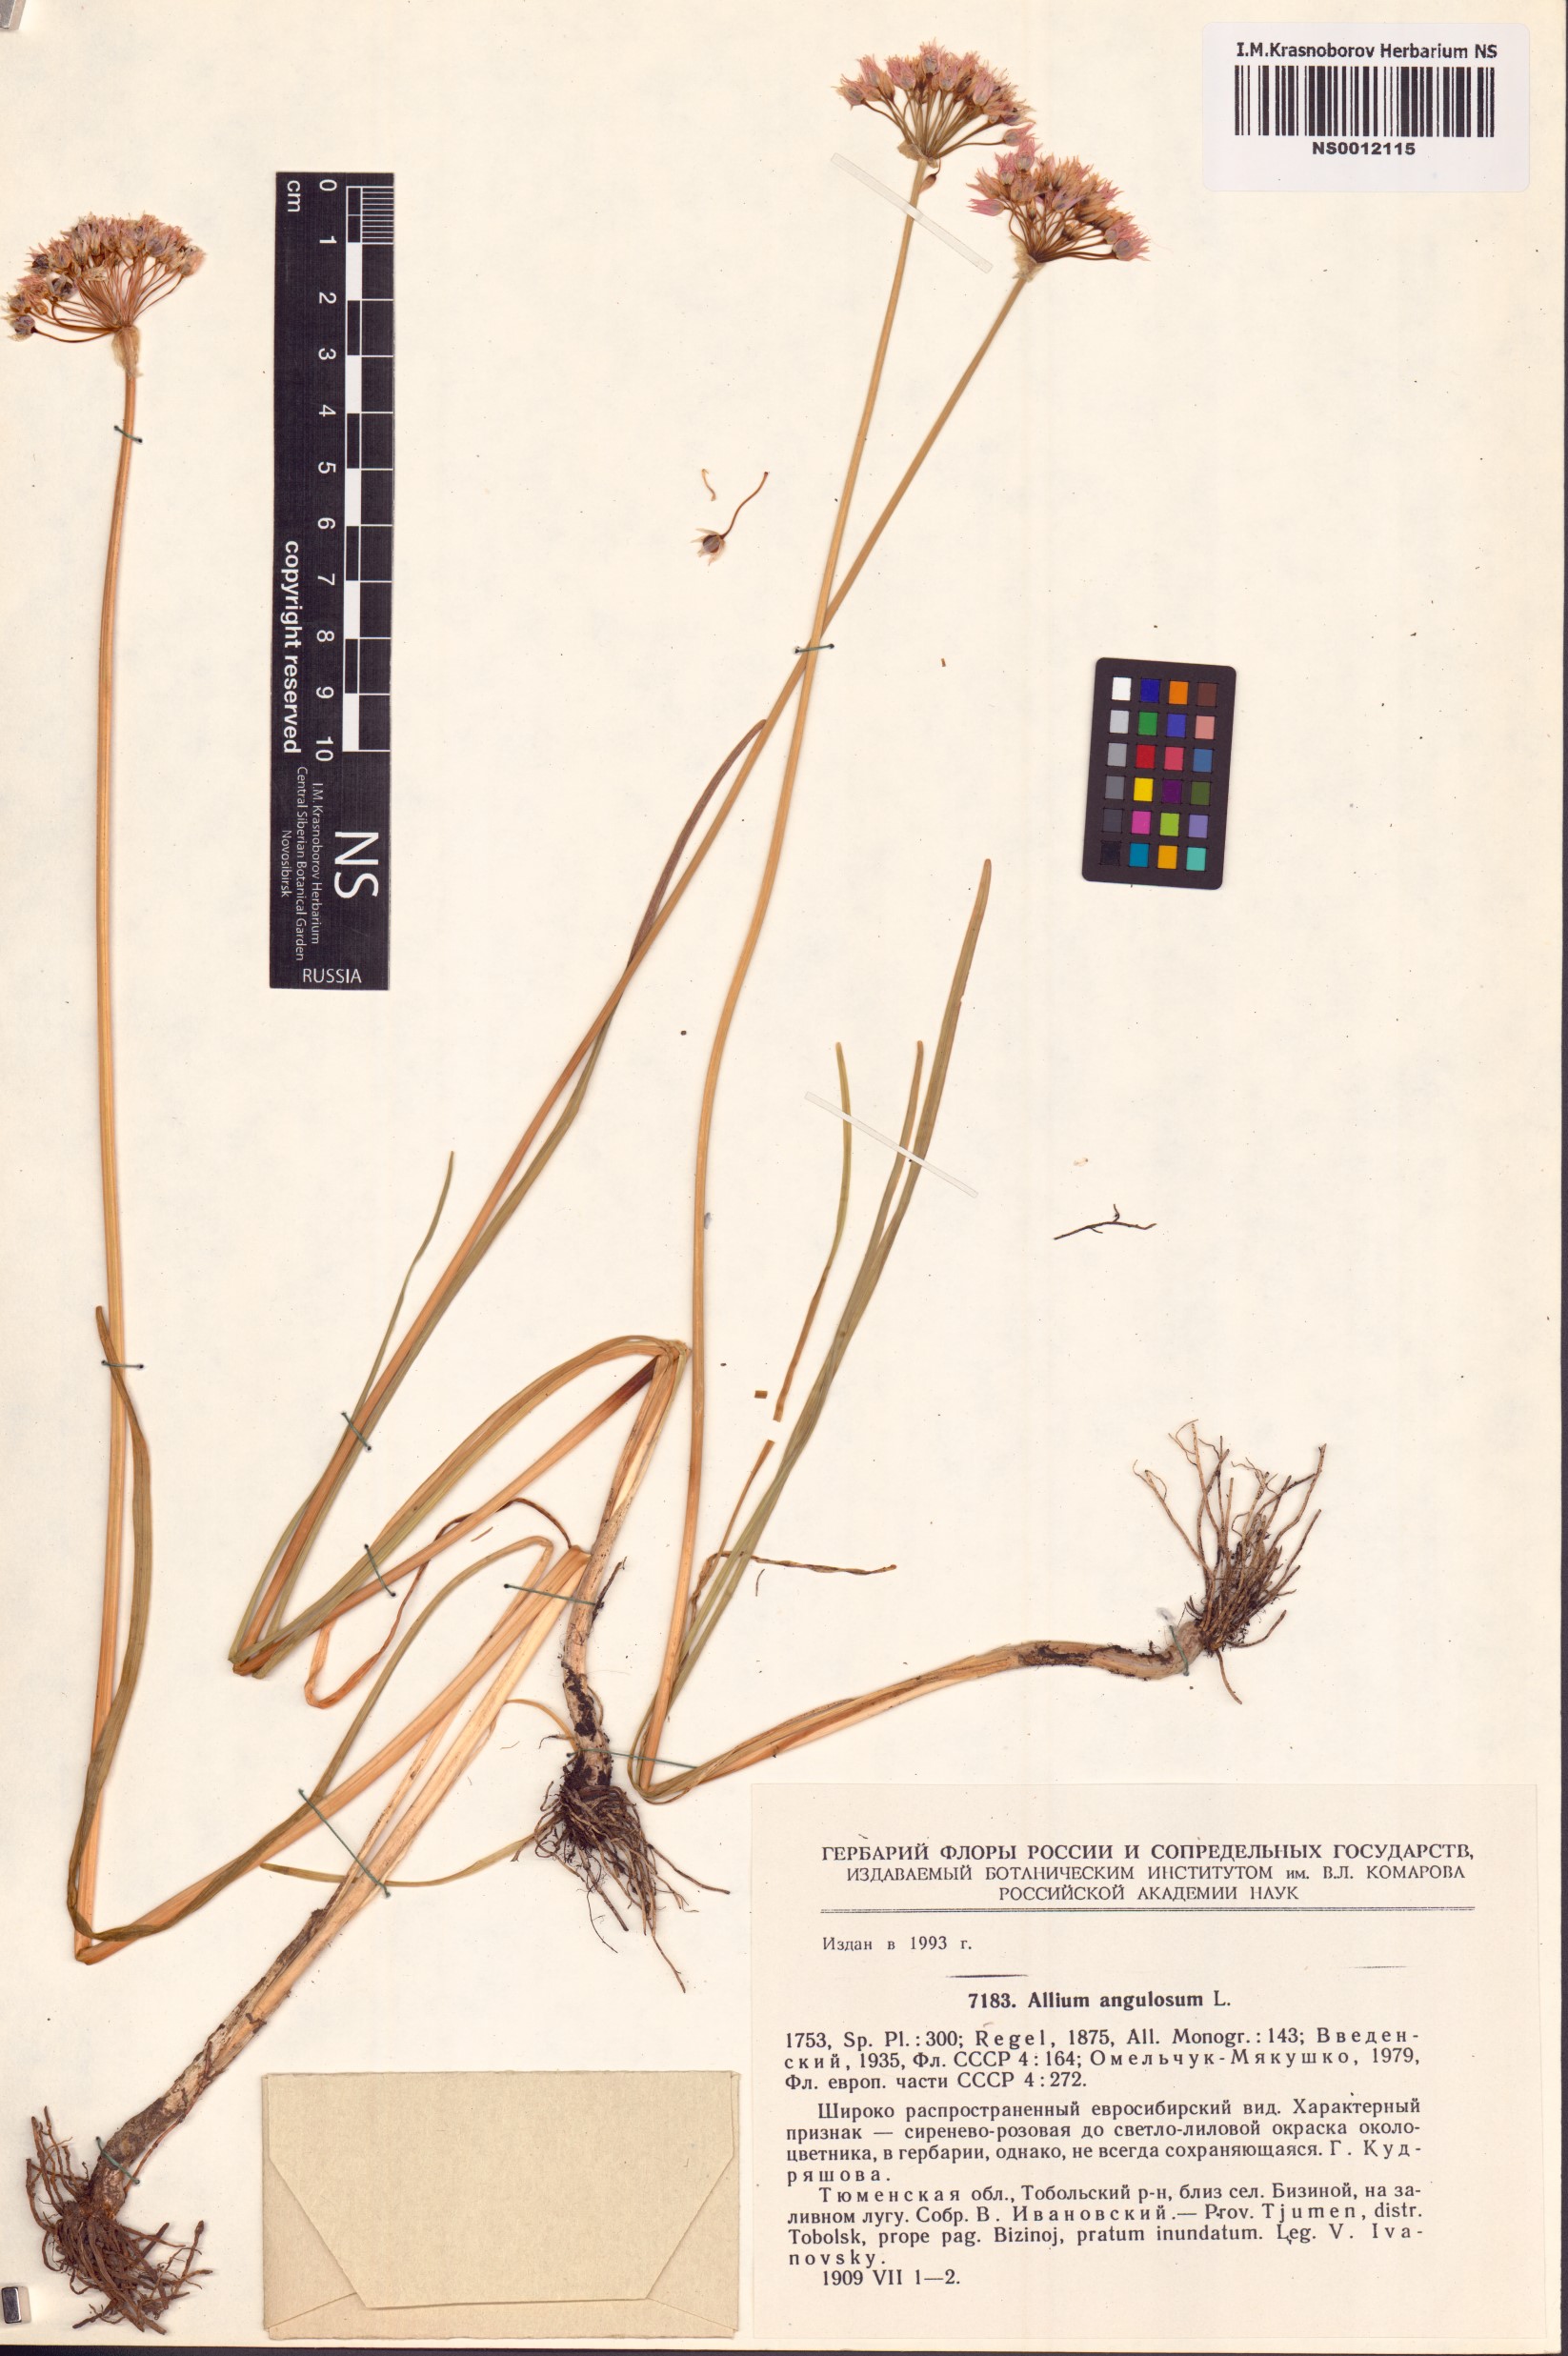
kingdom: Plantae
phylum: Tracheophyta
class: Liliopsida
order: Asparagales
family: Amaryllidaceae
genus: Allium
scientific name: Allium angulosum
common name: Mouse garlic
